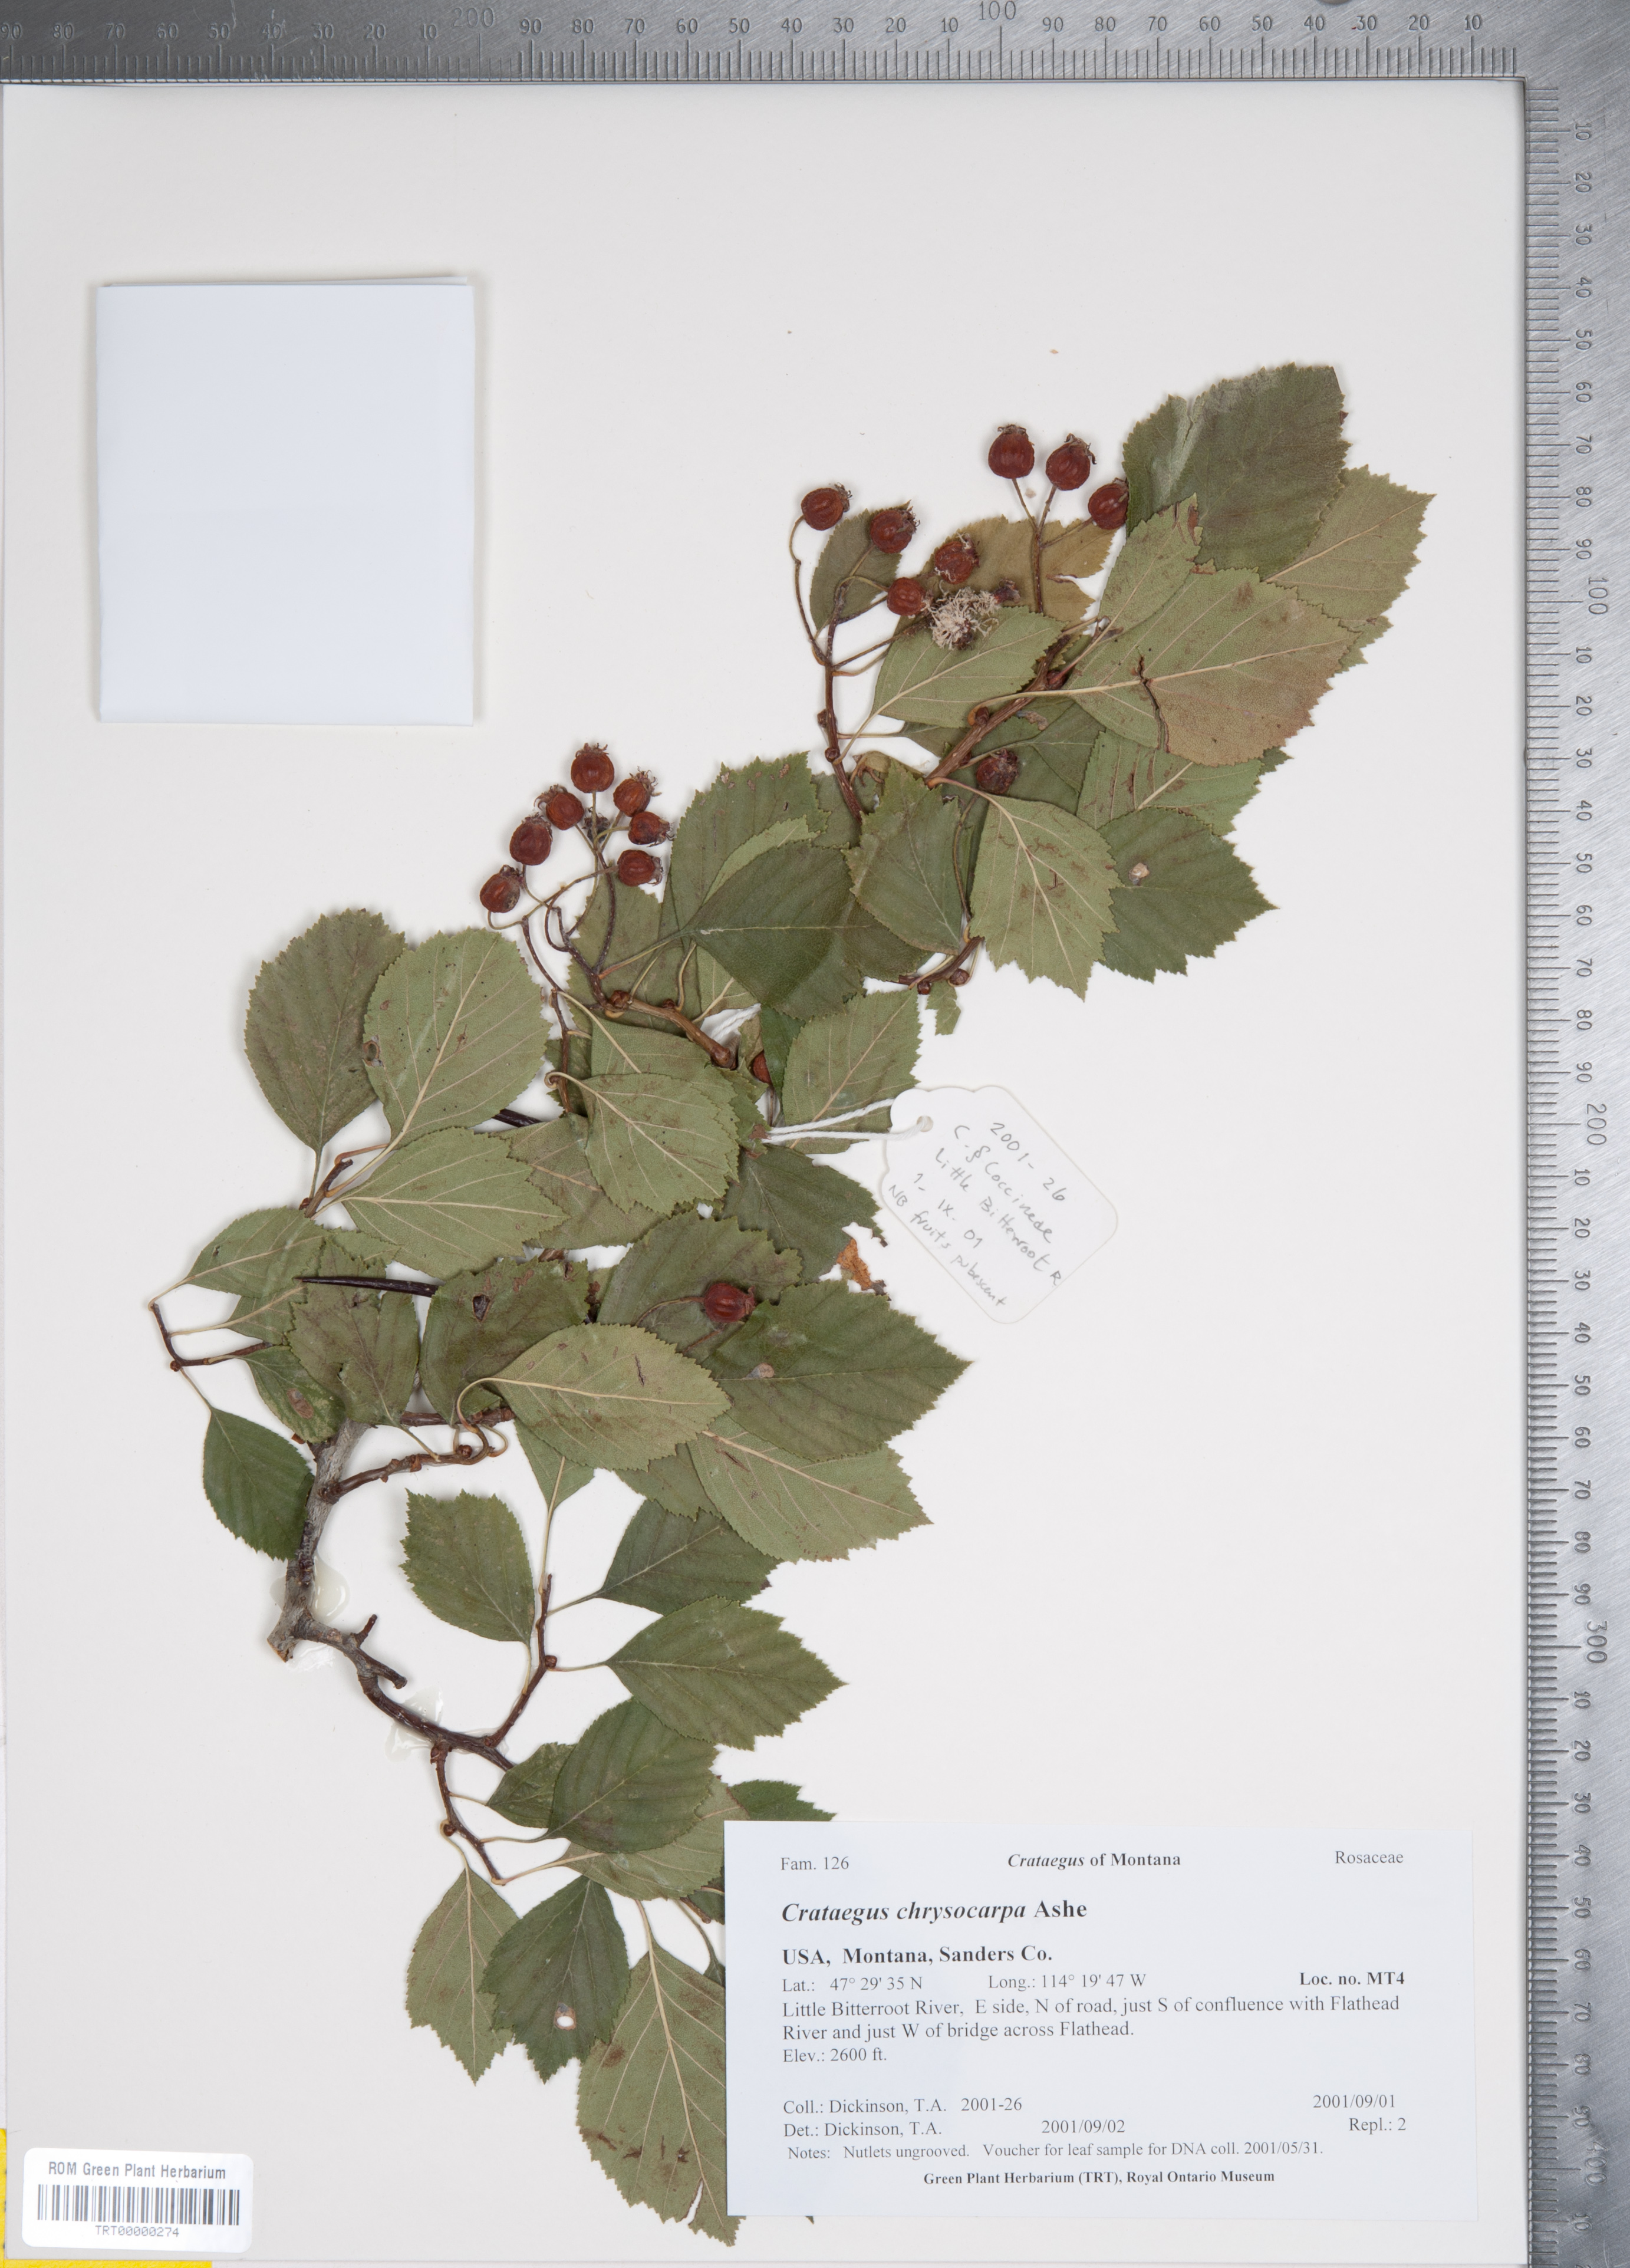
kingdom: Plantae
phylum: Tracheophyta
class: Magnoliopsida
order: Rosales
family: Rosaceae
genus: Crataegus
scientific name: Crataegus chrysocarpa
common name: Fire-berry hawthorn
